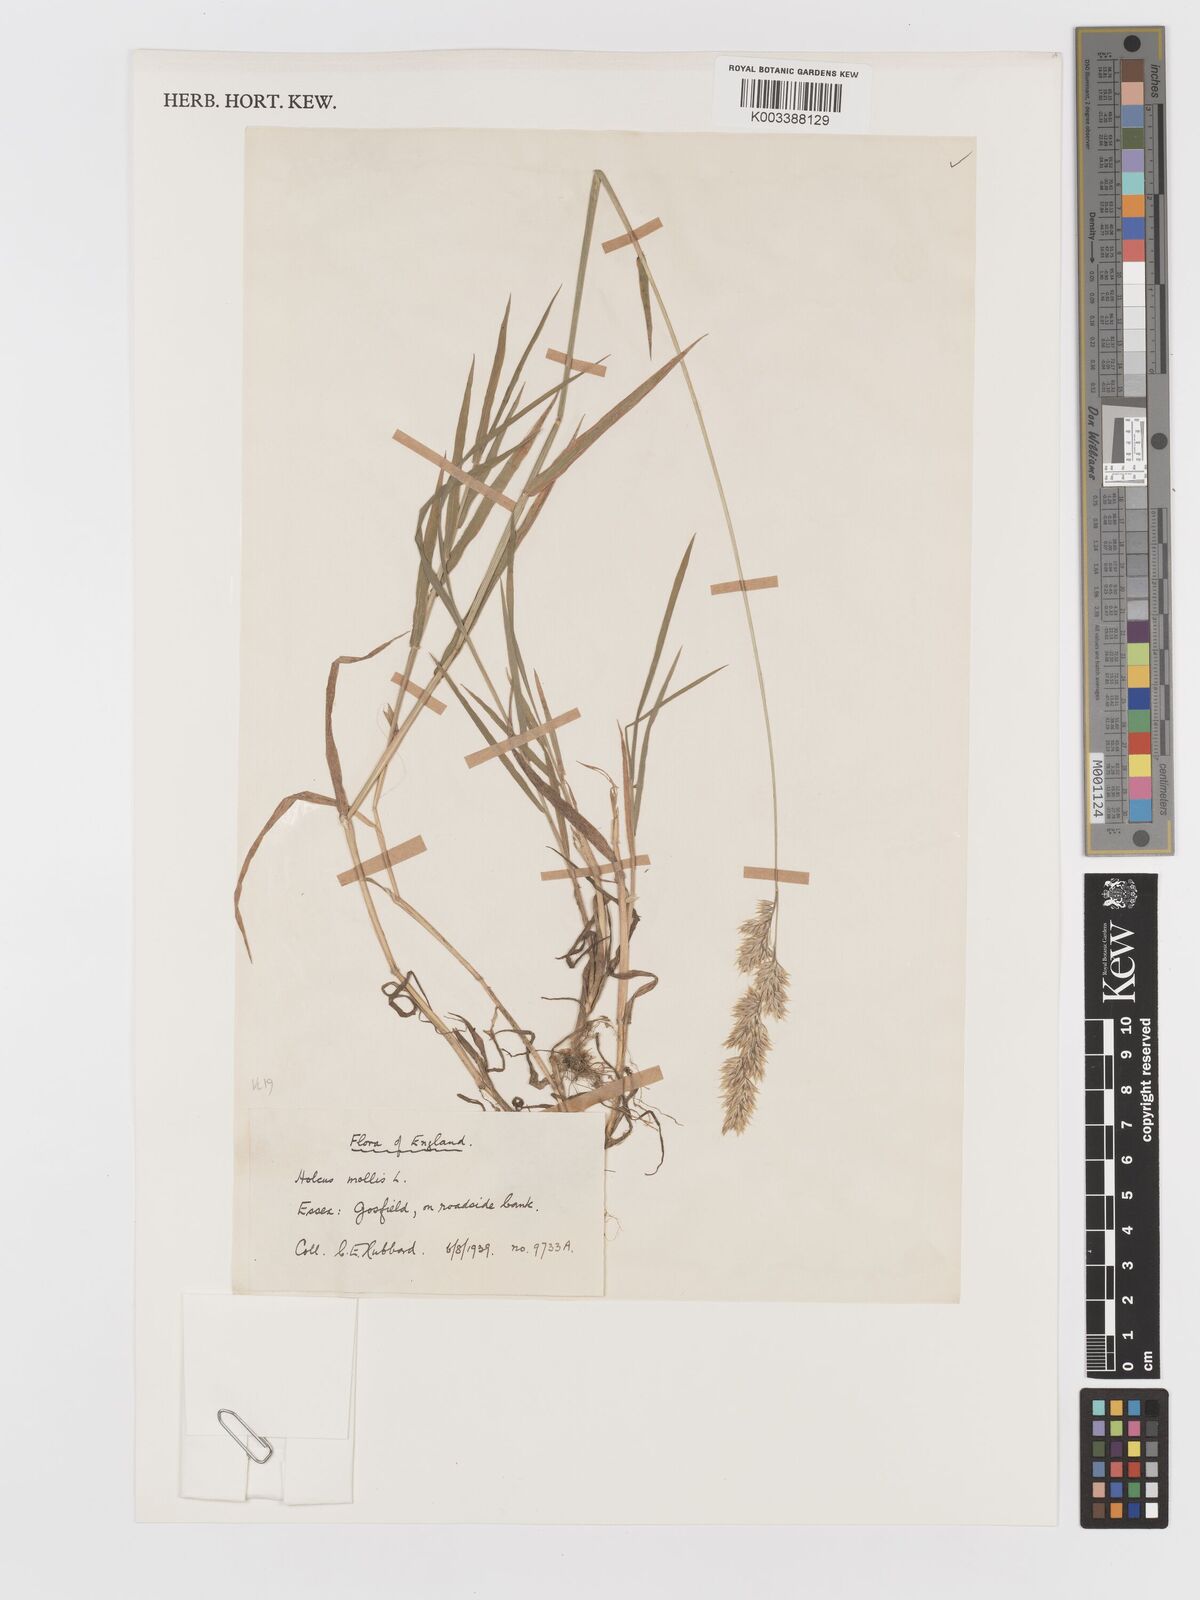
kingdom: Plantae
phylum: Tracheophyta
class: Liliopsida
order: Poales
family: Poaceae
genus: Holcus
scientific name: Holcus mollis
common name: Creeping velvetgrass
